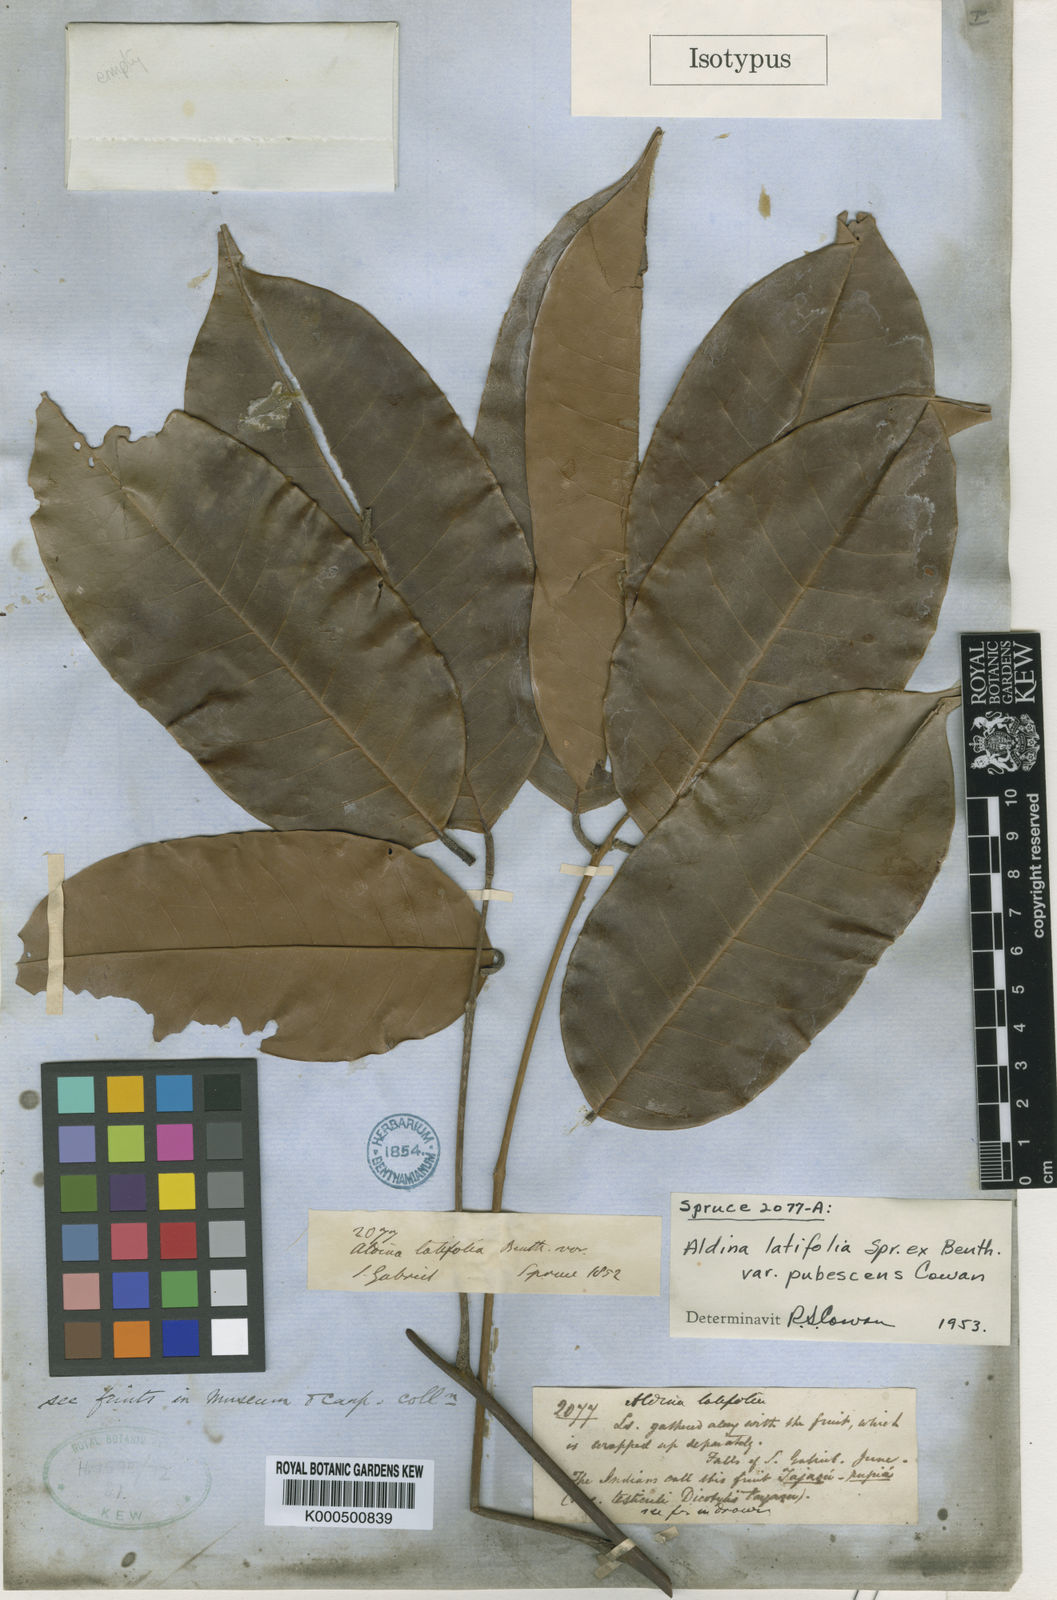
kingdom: Plantae
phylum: Tracheophyta
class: Magnoliopsida
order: Fabales
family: Fabaceae
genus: Aldina
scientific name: Aldina latifolia
